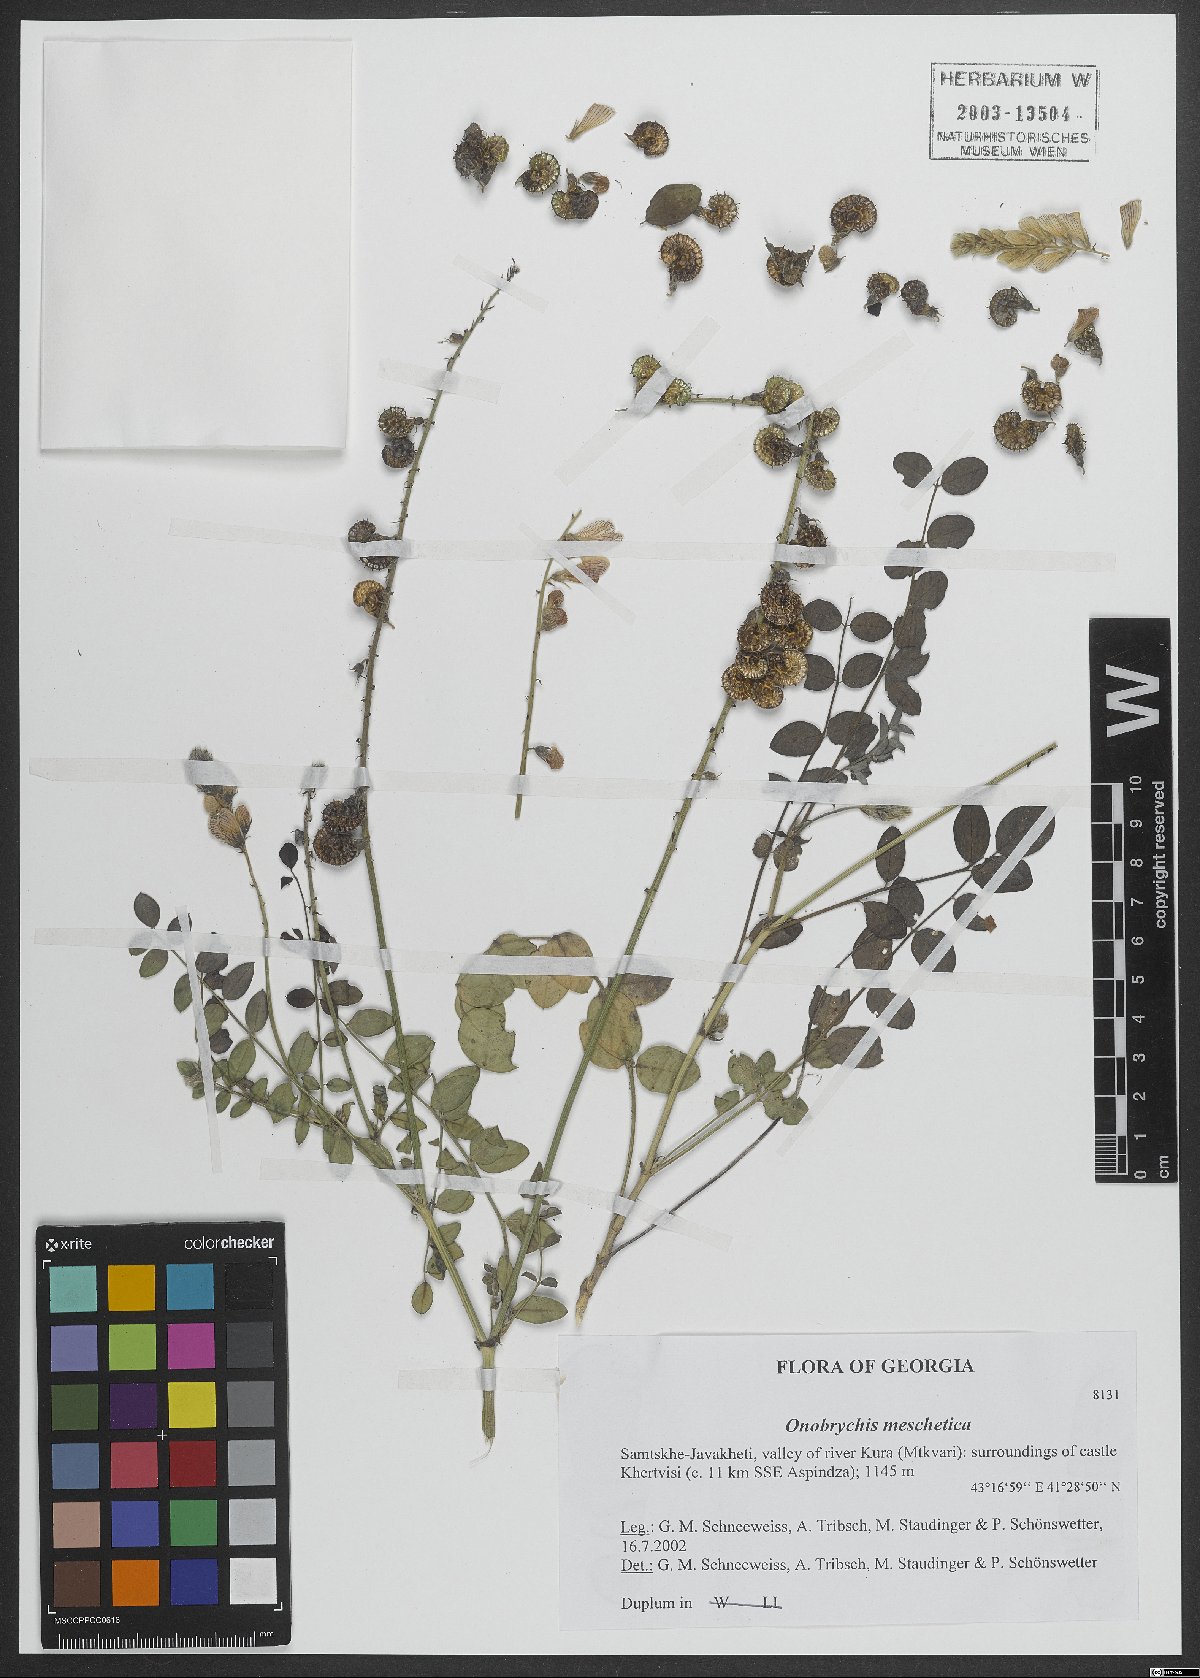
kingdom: Plantae
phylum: Tracheophyta
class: Magnoliopsida
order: Fabales
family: Fabaceae
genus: Onobrychis
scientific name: Onobrychis meschetica
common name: Meskhetian sainfoin
